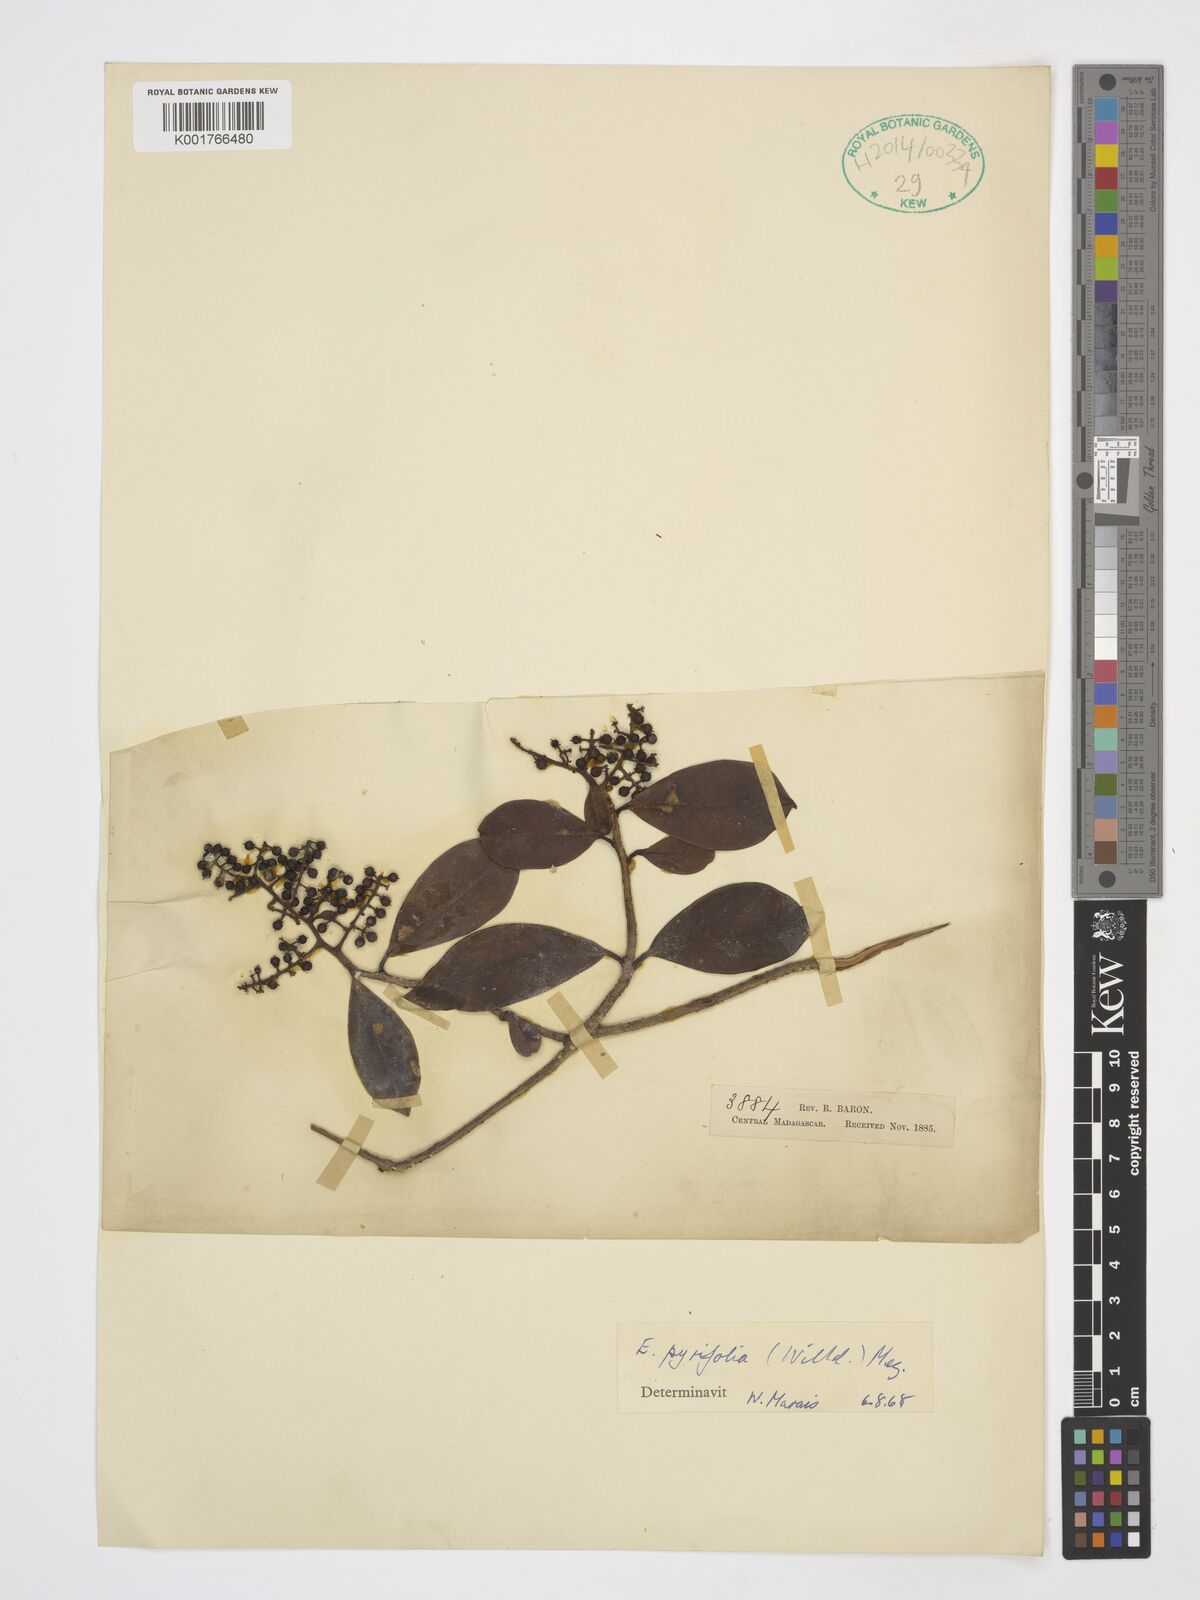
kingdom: Plantae
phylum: Tracheophyta
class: Magnoliopsida
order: Ericales
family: Primulaceae
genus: Embelia
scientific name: Embelia pyrifolia
